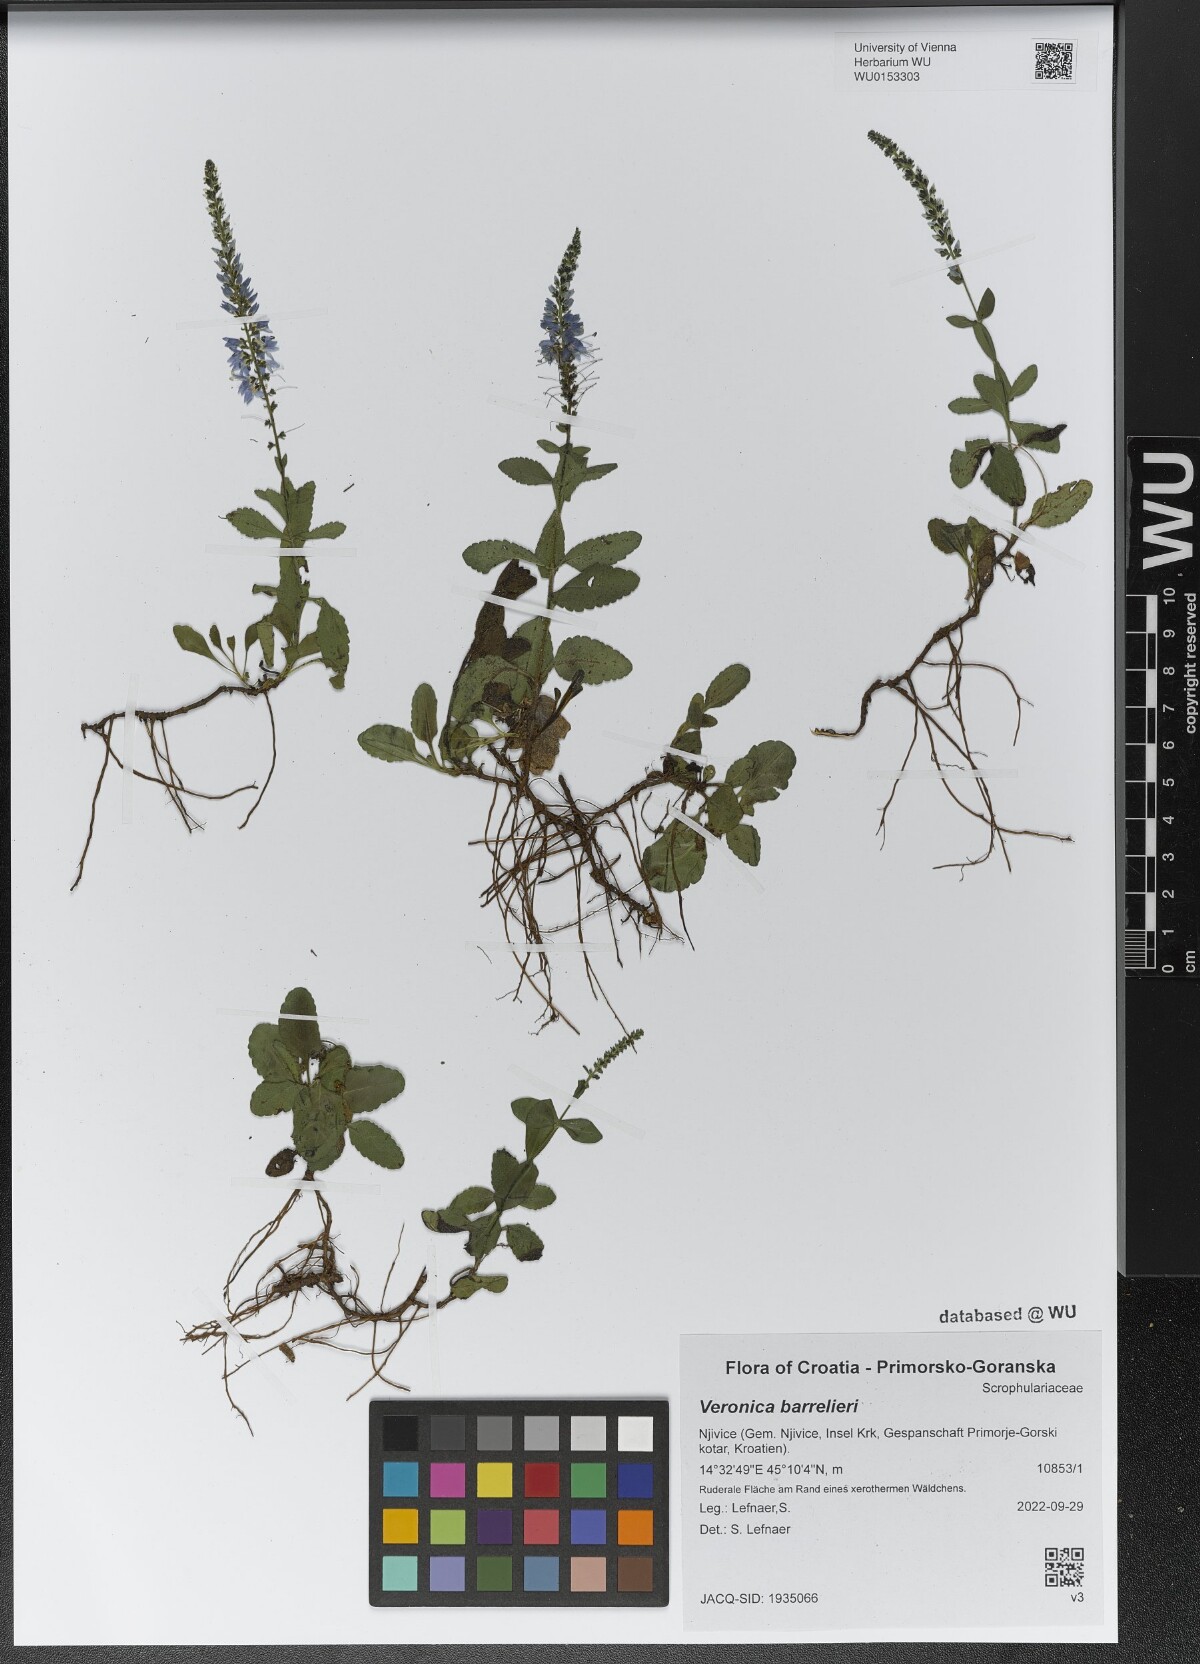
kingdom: Plantae
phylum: Tracheophyta
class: Magnoliopsida
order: Lamiales
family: Plantaginaceae
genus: Veronica
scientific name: Veronica barrelieri
